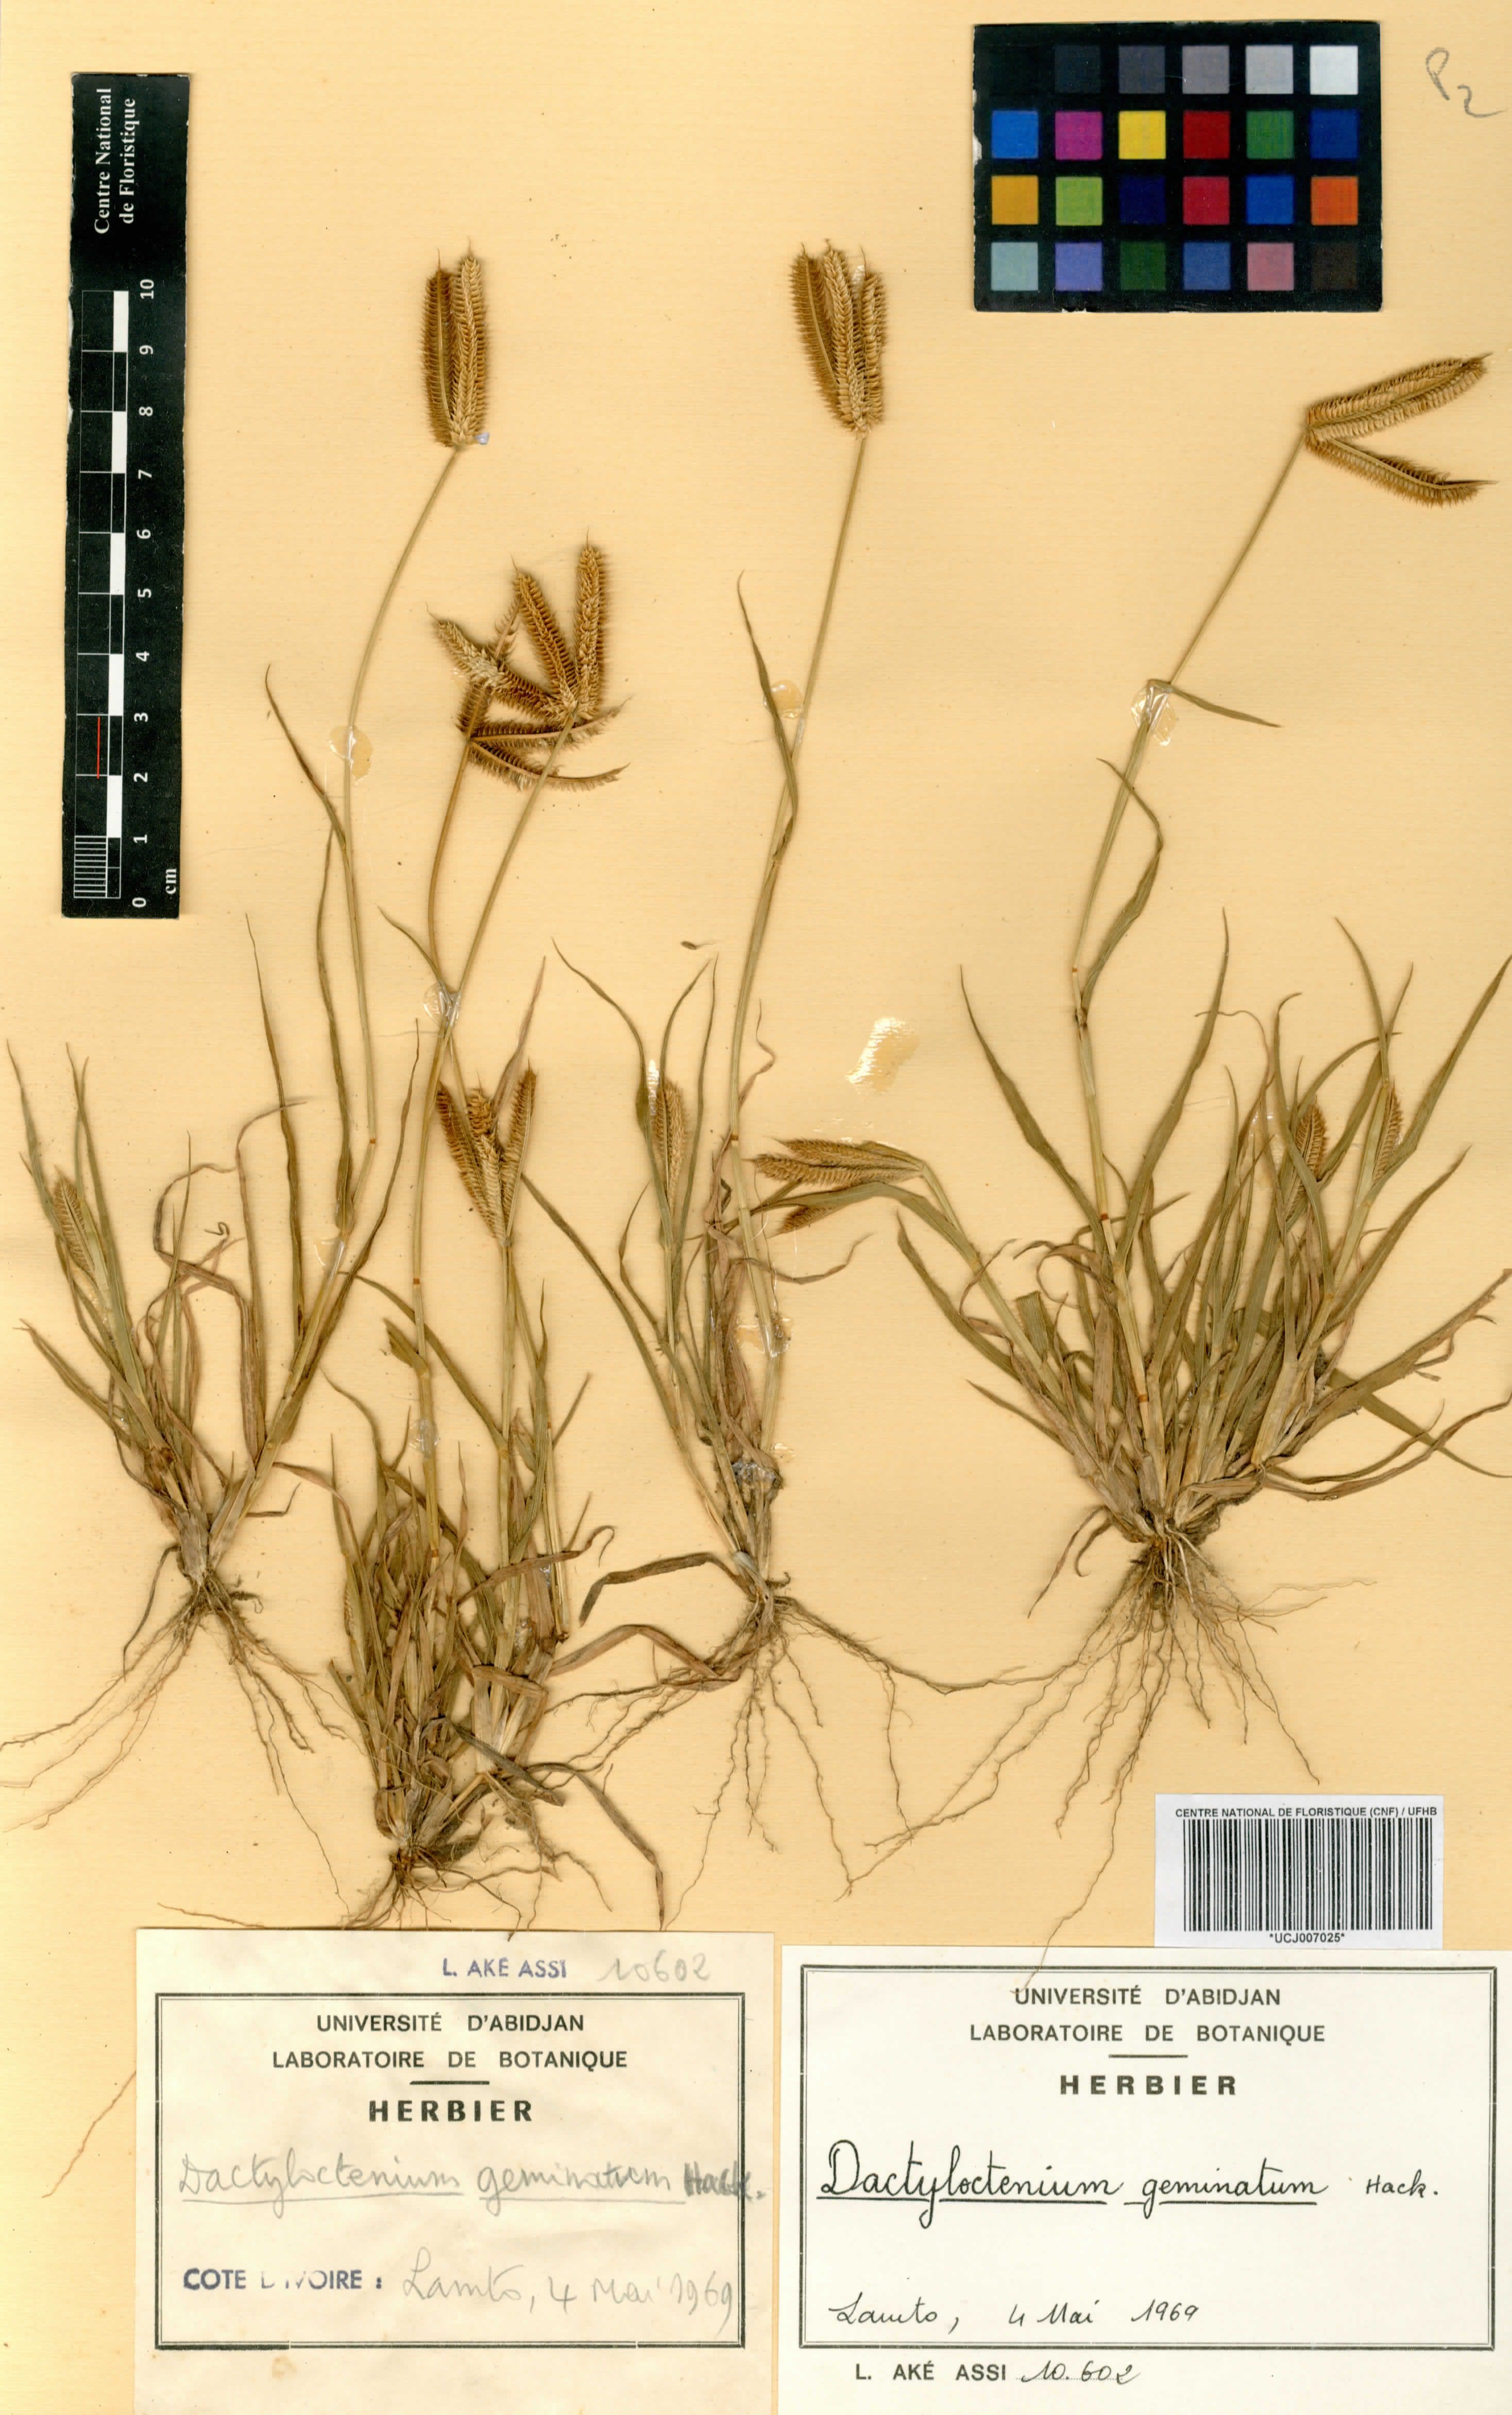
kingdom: Plantae
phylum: Tracheophyta
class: Liliopsida
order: Poales
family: Poaceae
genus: Dactyloctenium
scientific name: Dactyloctenium geminatum
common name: Crowsfoot grass
